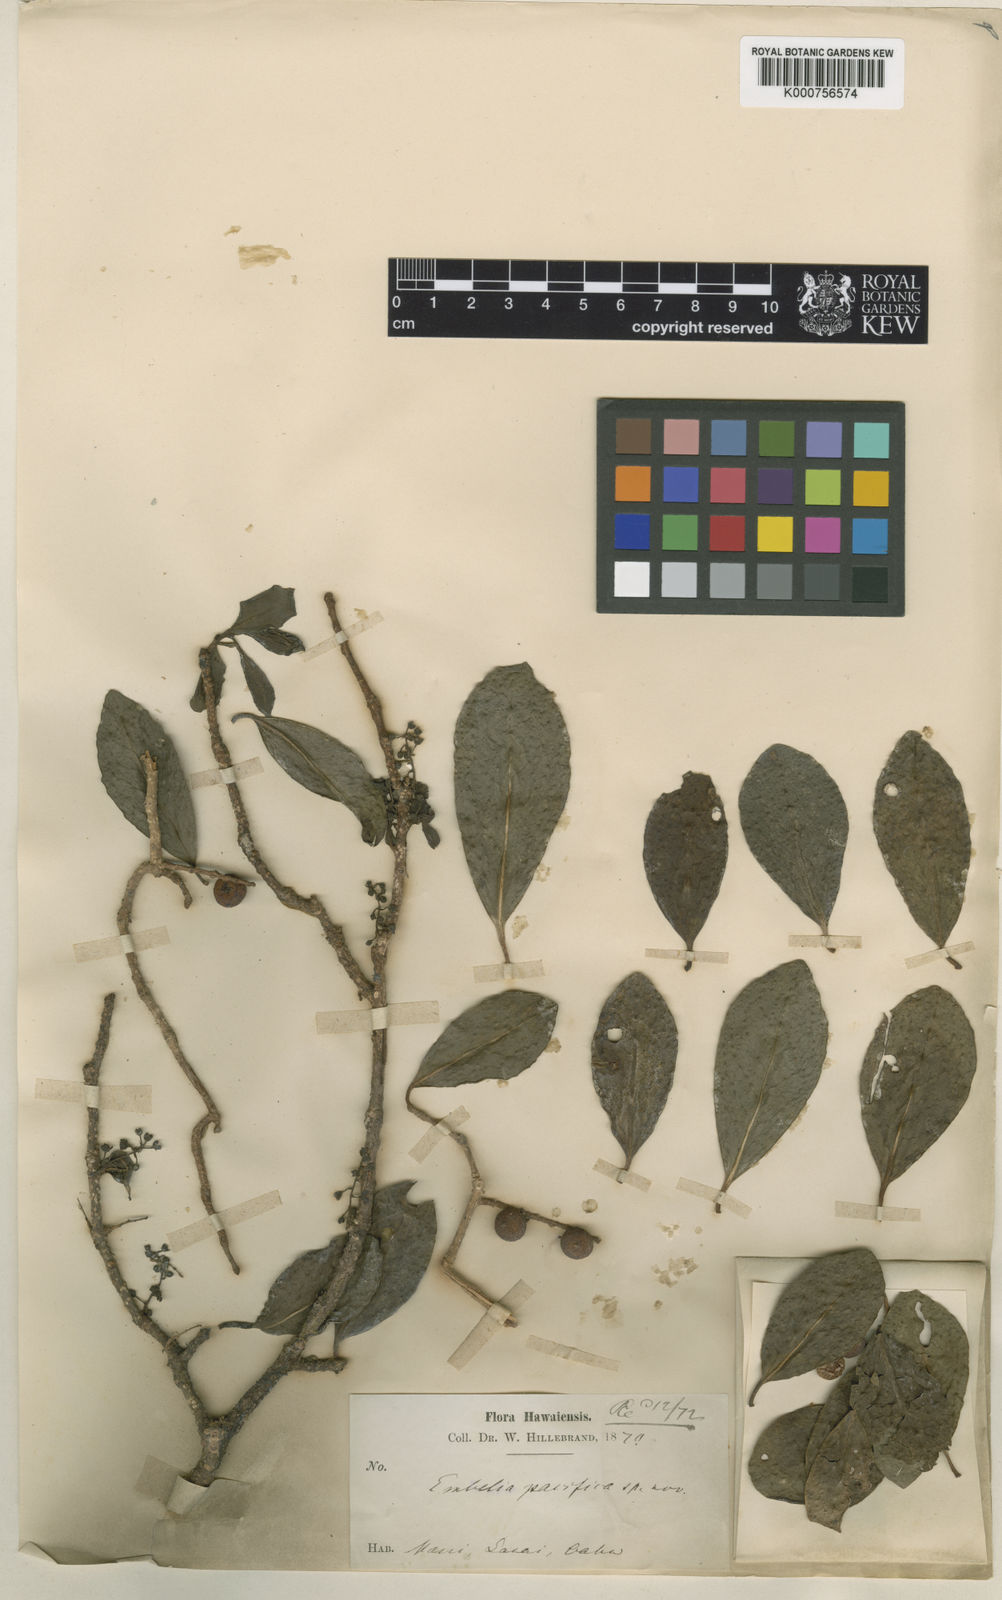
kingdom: Plantae
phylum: Tracheophyta
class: Magnoliopsida
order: Ericales
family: Primulaceae
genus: Embelia
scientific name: Embelia pacifica
